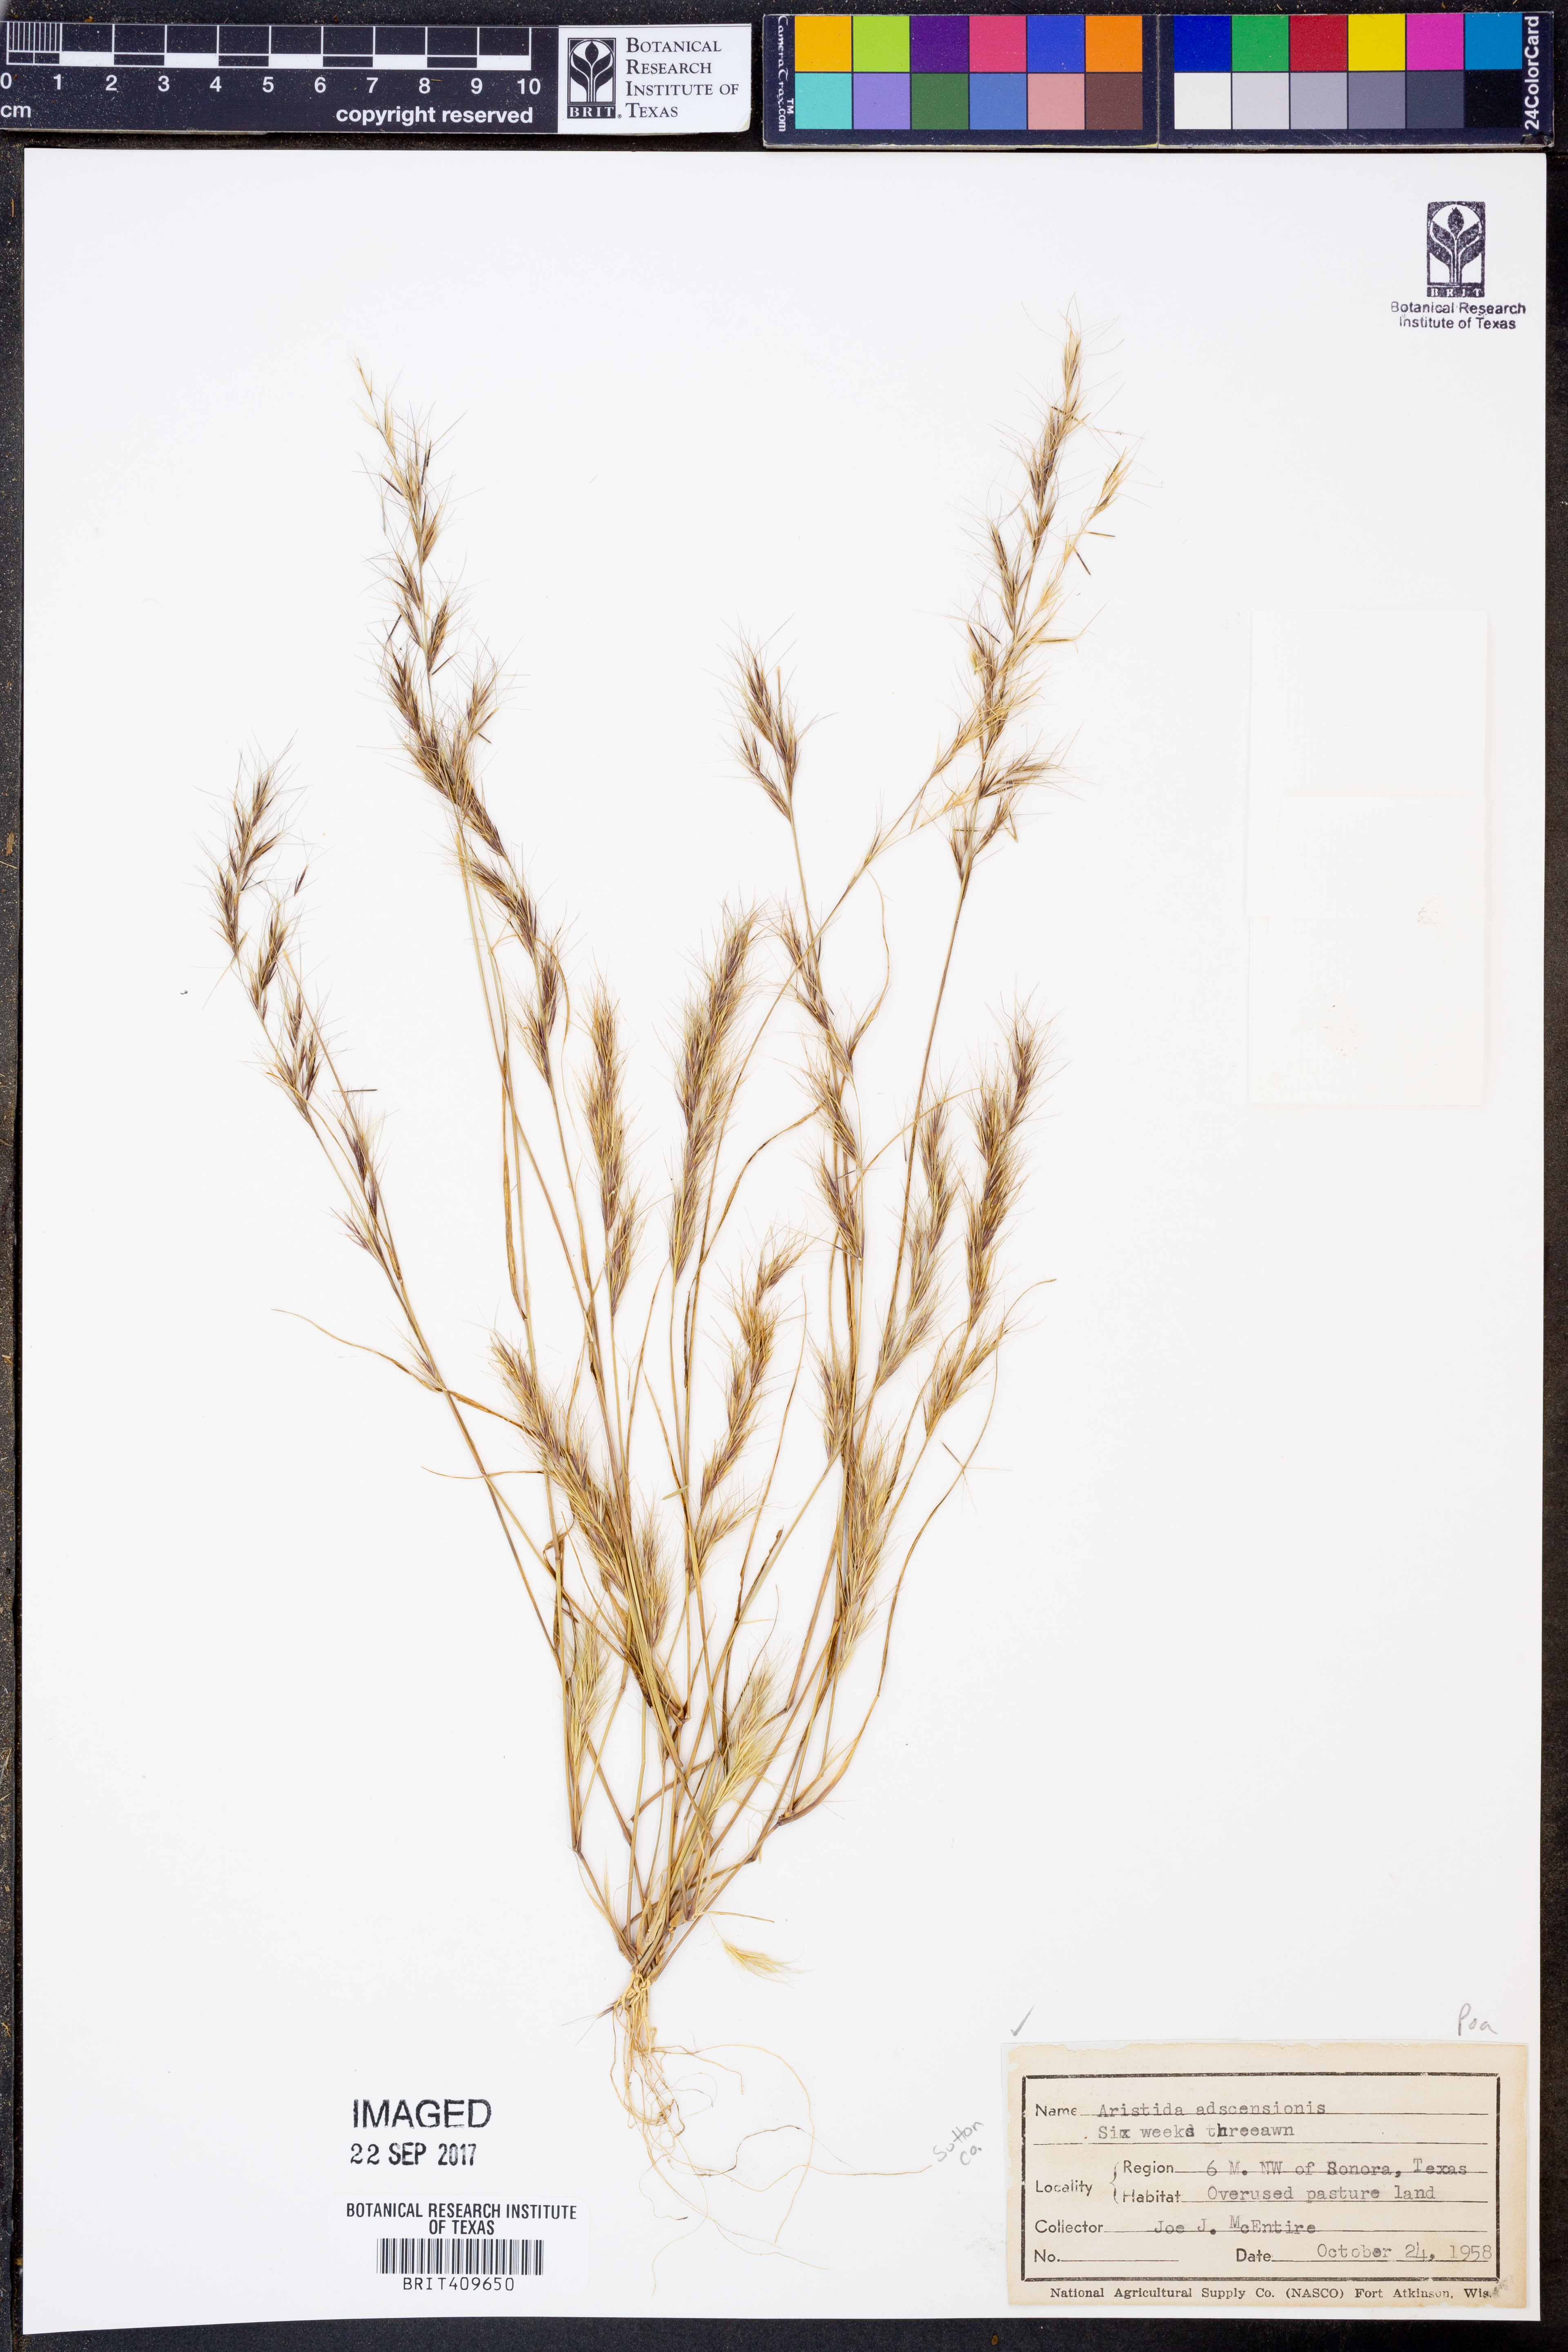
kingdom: Plantae
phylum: Tracheophyta
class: Liliopsida
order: Poales
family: Poaceae
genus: Aristida
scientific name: Aristida adscensionis
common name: Sixweeks threeawn
